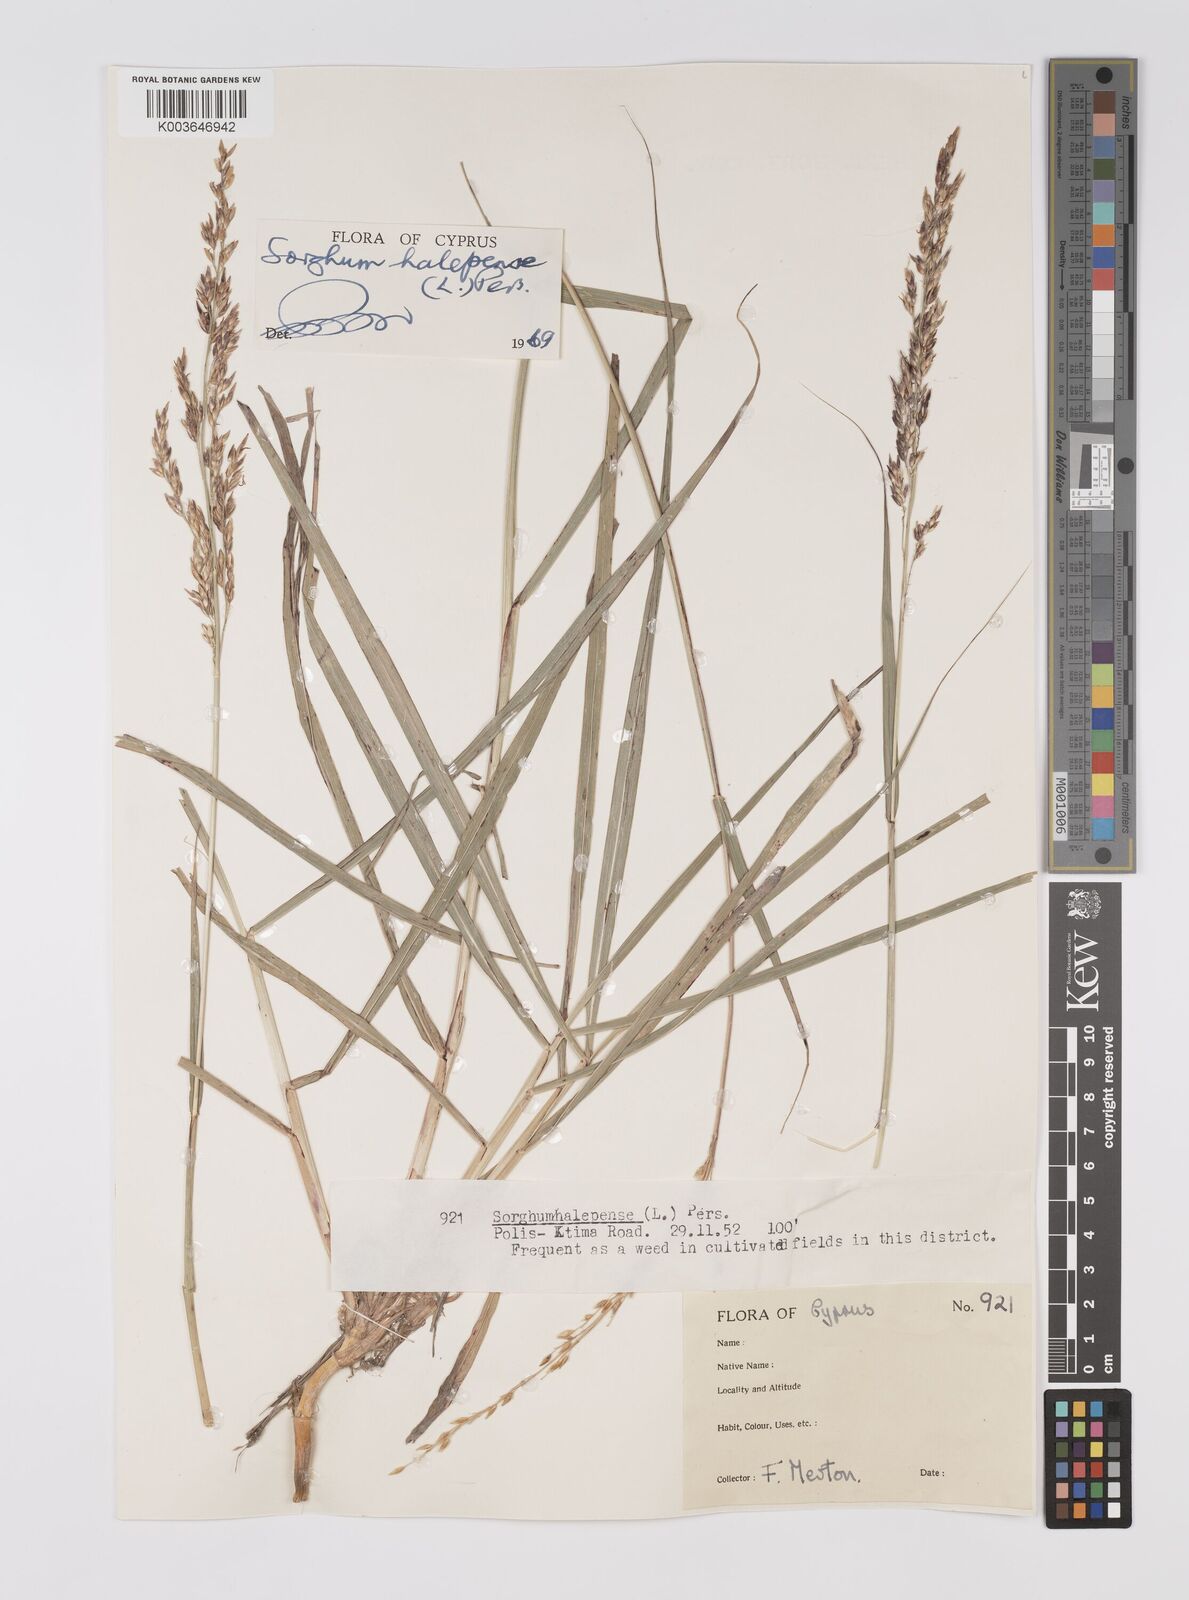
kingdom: Plantae
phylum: Tracheophyta
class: Liliopsida
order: Poales
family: Poaceae
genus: Sorghum
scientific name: Sorghum halepense
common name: Johnson-grass
